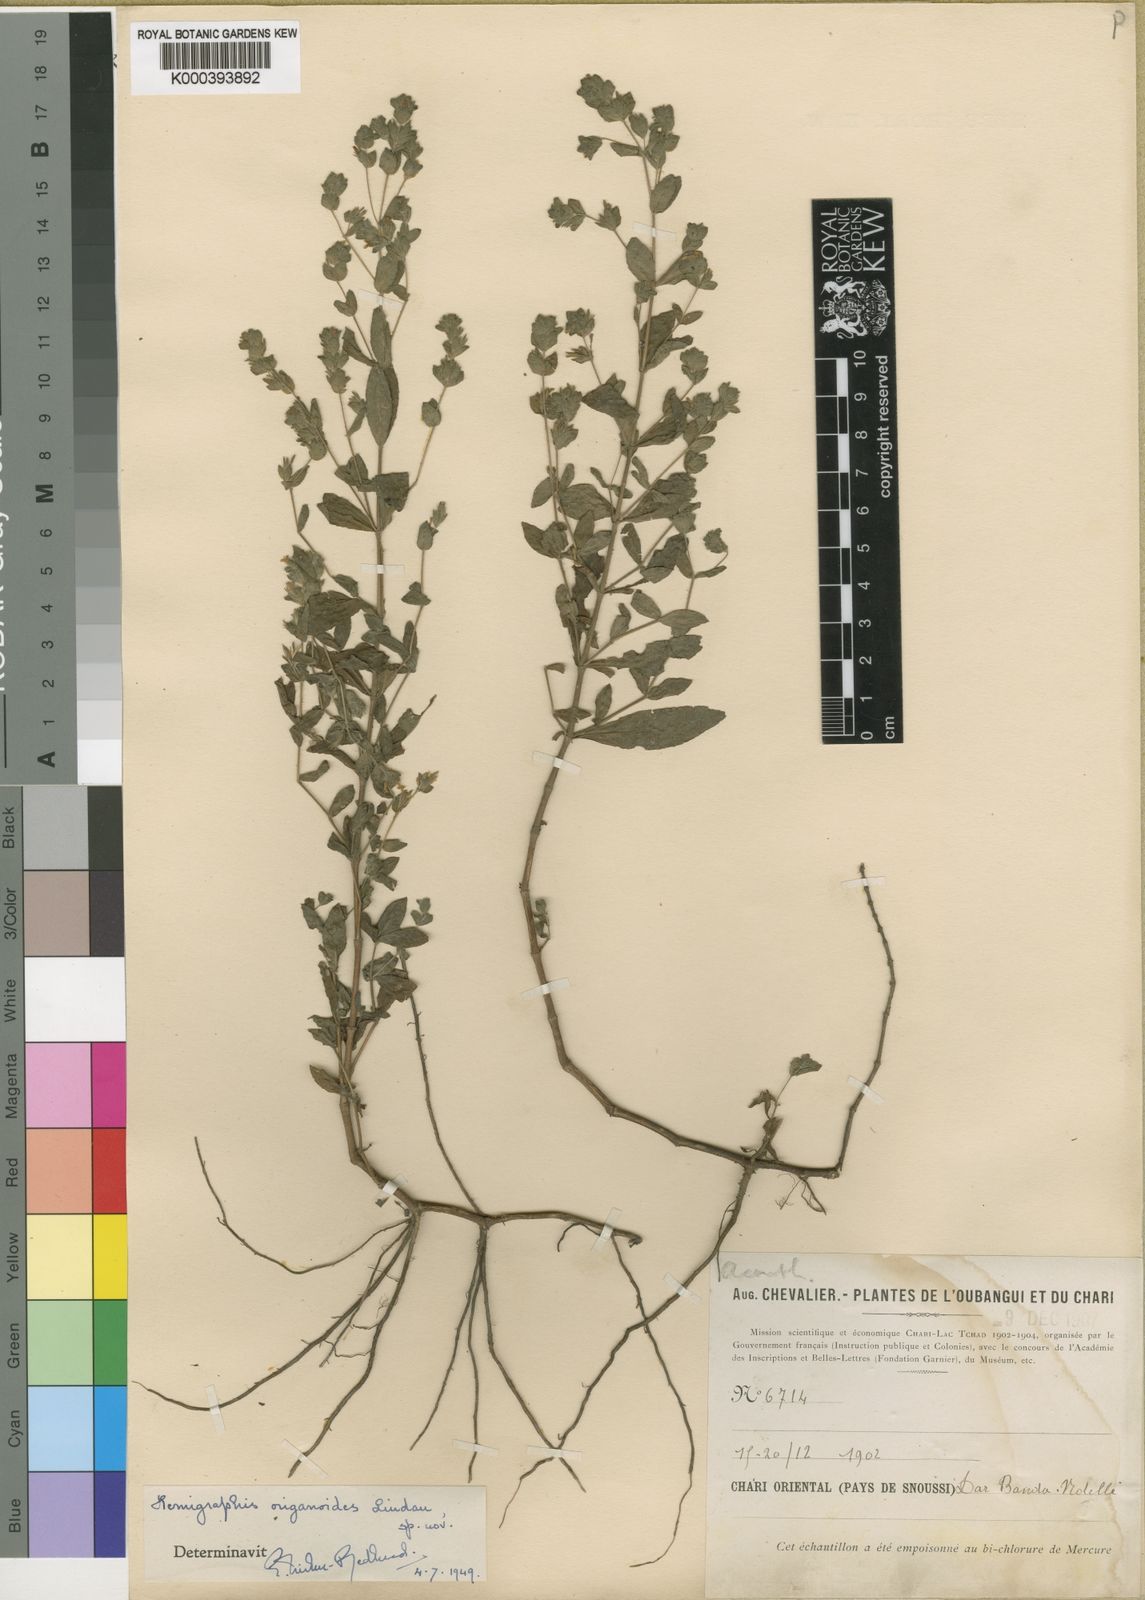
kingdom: Plantae
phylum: Tracheophyta
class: Magnoliopsida
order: Lamiales
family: Acanthaceae
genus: Hygrophila
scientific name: Hygrophila abyssinica
